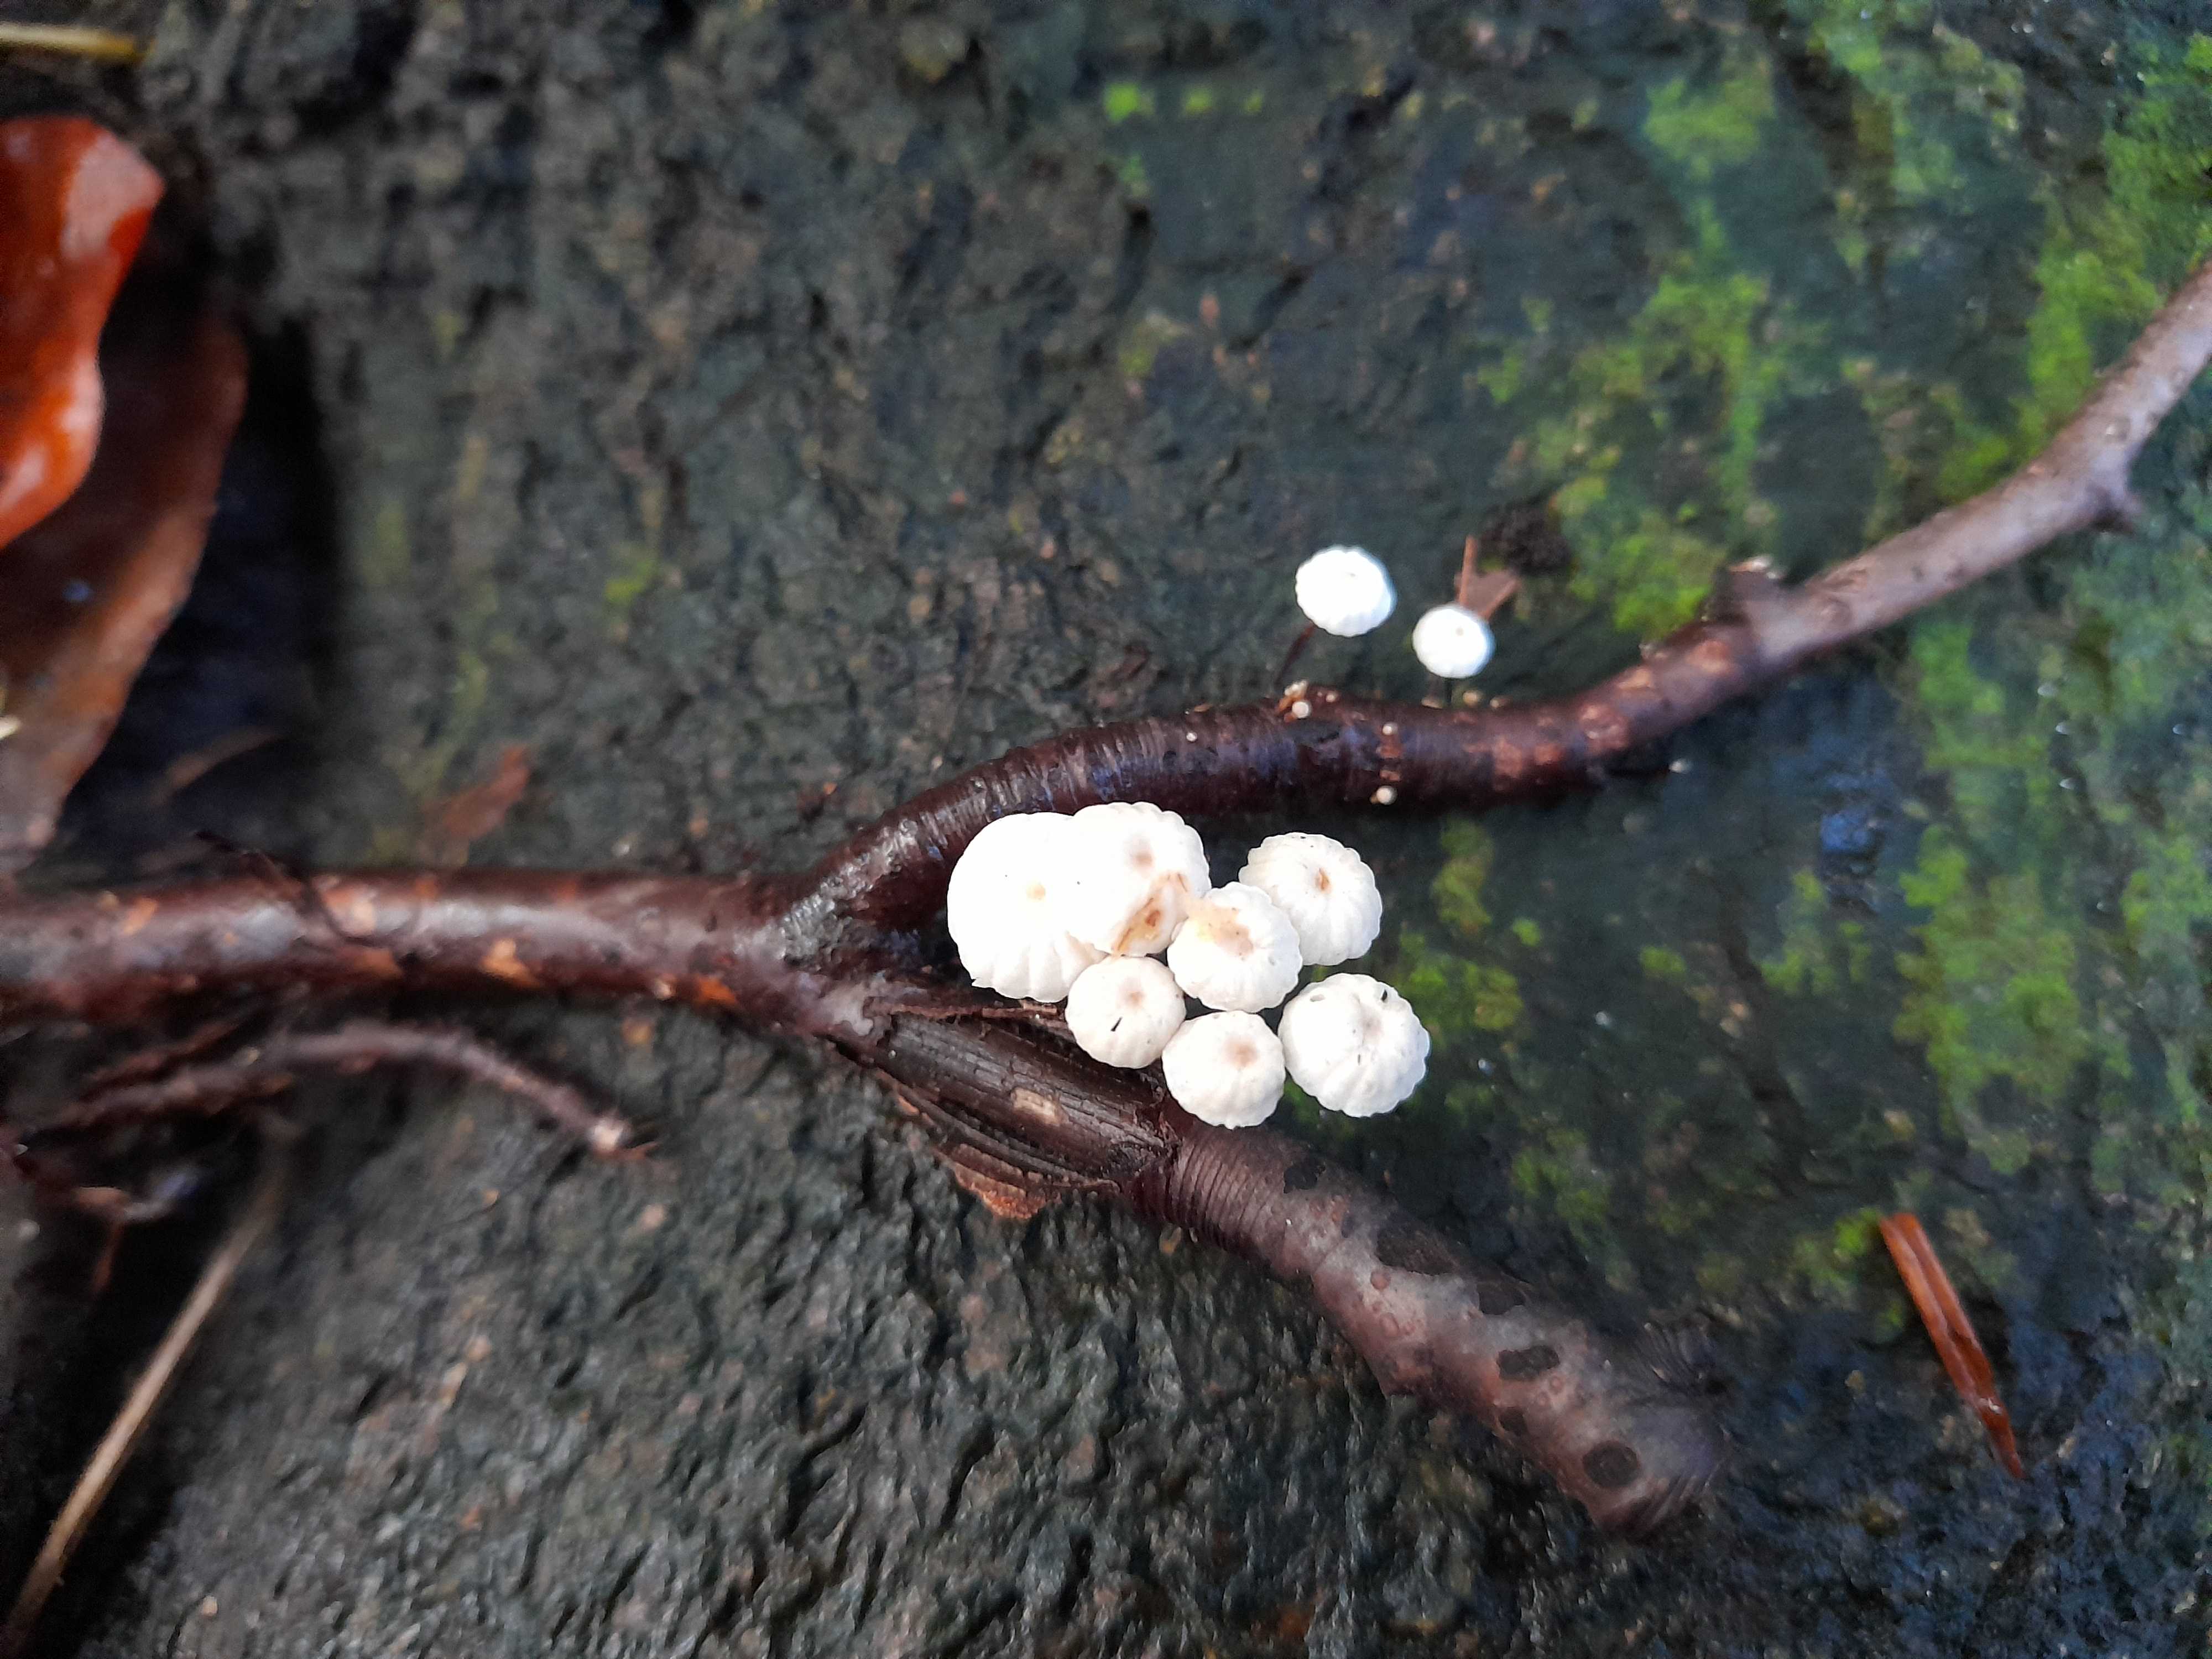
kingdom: Fungi
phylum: Basidiomycota
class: Agaricomycetes
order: Agaricales
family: Omphalotaceae
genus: Collybiopsis
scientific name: Collybiopsis ramealis
